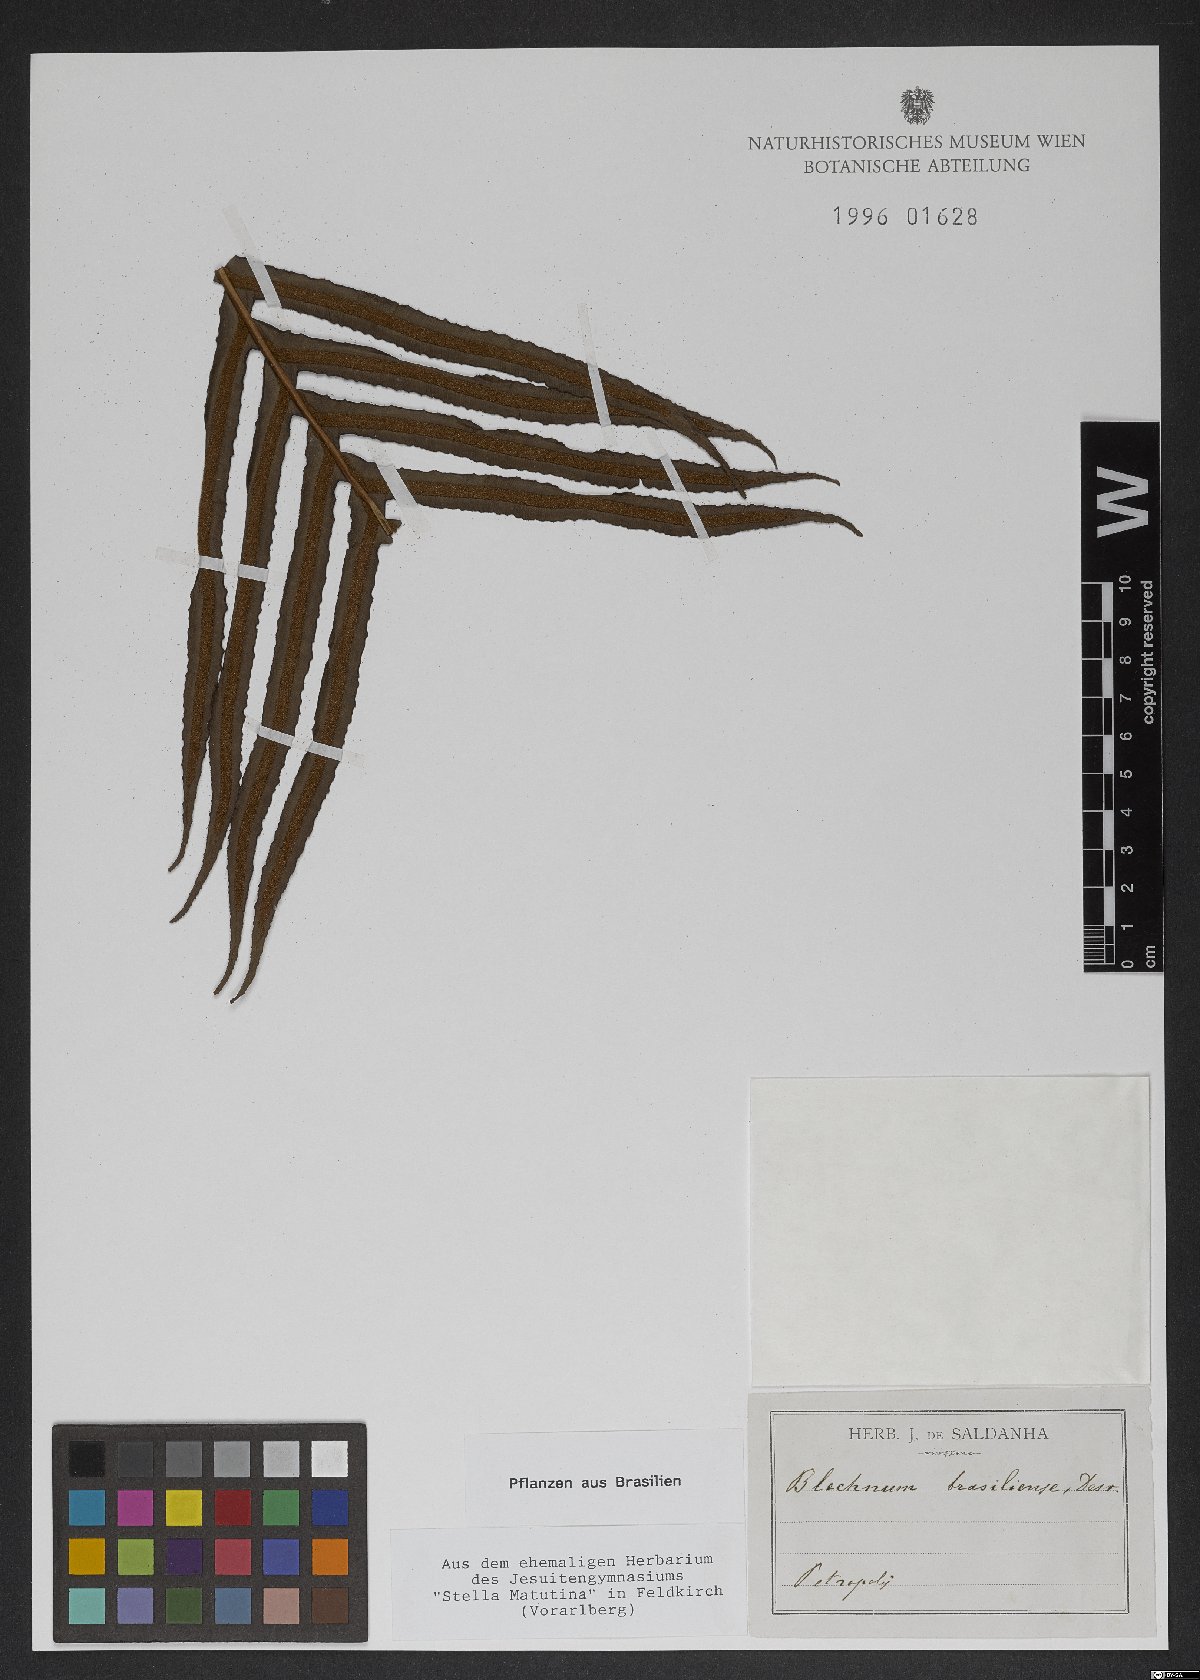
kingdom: Plantae
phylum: Tracheophyta
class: Polypodiopsida
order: Polypodiales
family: Blechnaceae
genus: Neoblechnum
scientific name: Neoblechnum brasiliense
